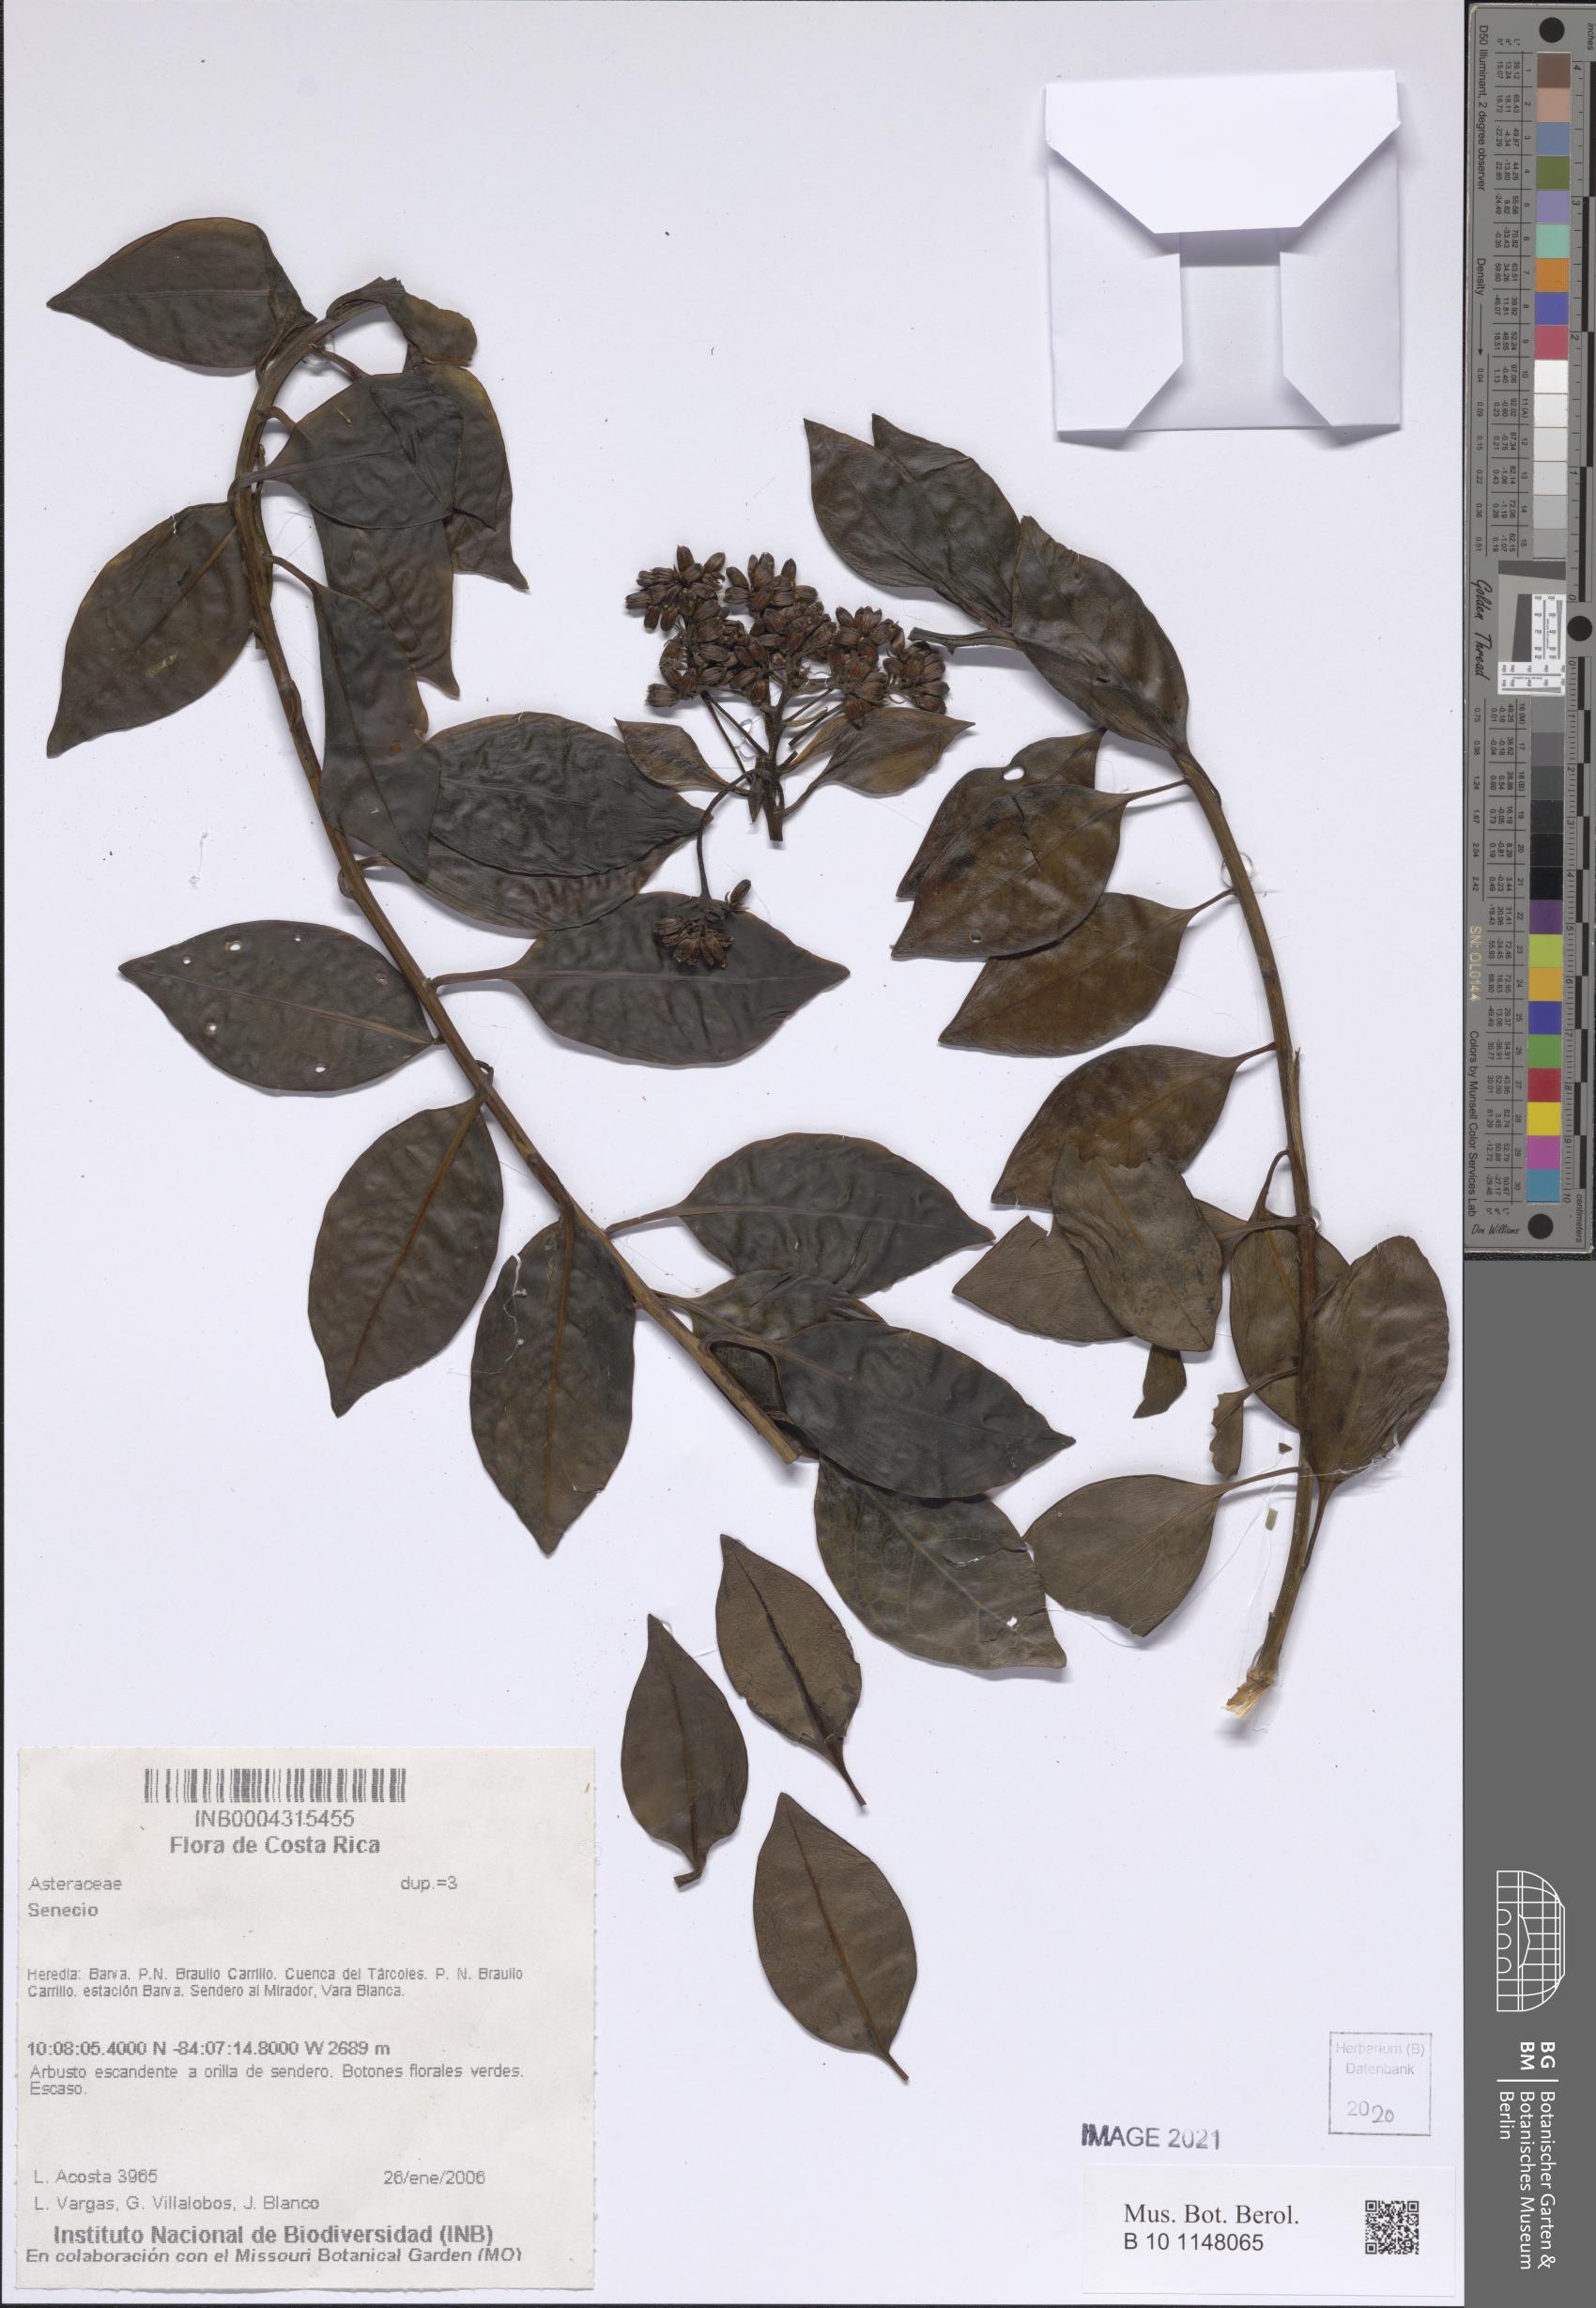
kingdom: Plantae
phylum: Tracheophyta
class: Magnoliopsida
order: Asterales
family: Asteraceae
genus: Senecio
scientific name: Senecio
